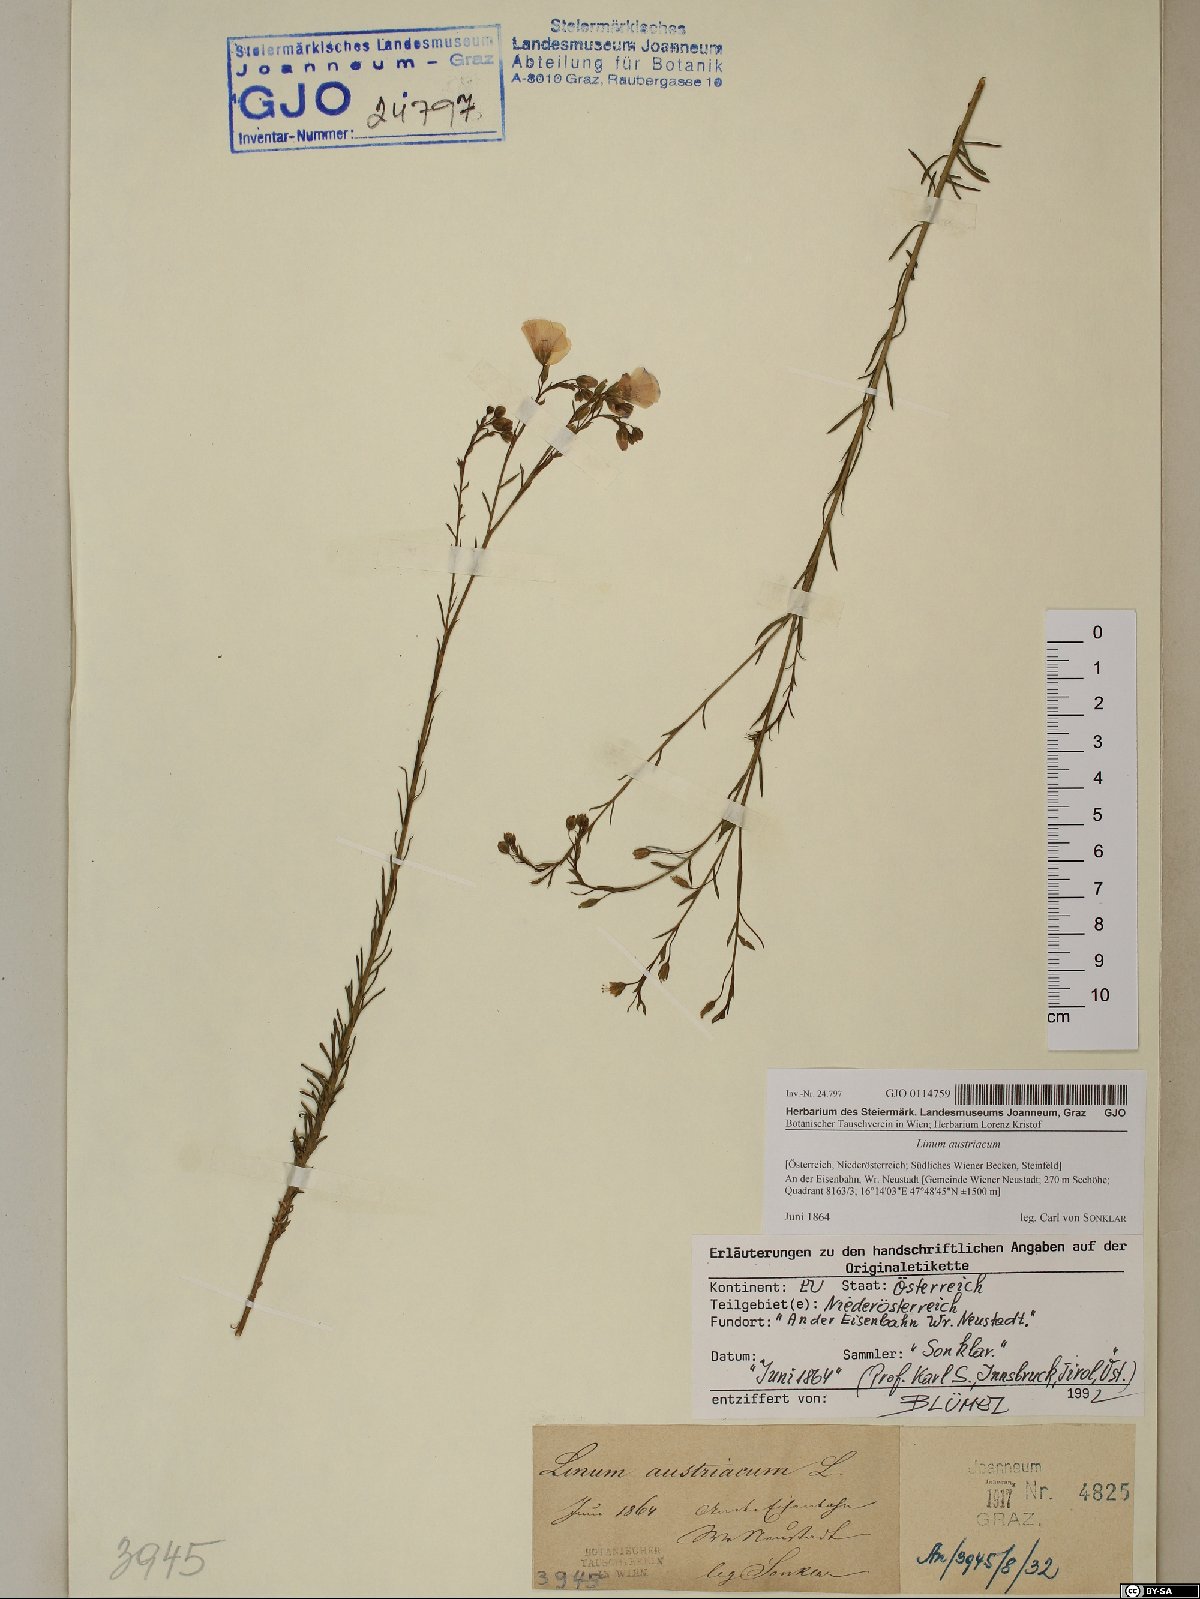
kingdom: Plantae
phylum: Tracheophyta
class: Magnoliopsida
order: Malpighiales
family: Linaceae
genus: Linum
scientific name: Linum austriacum
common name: Austrian flax
